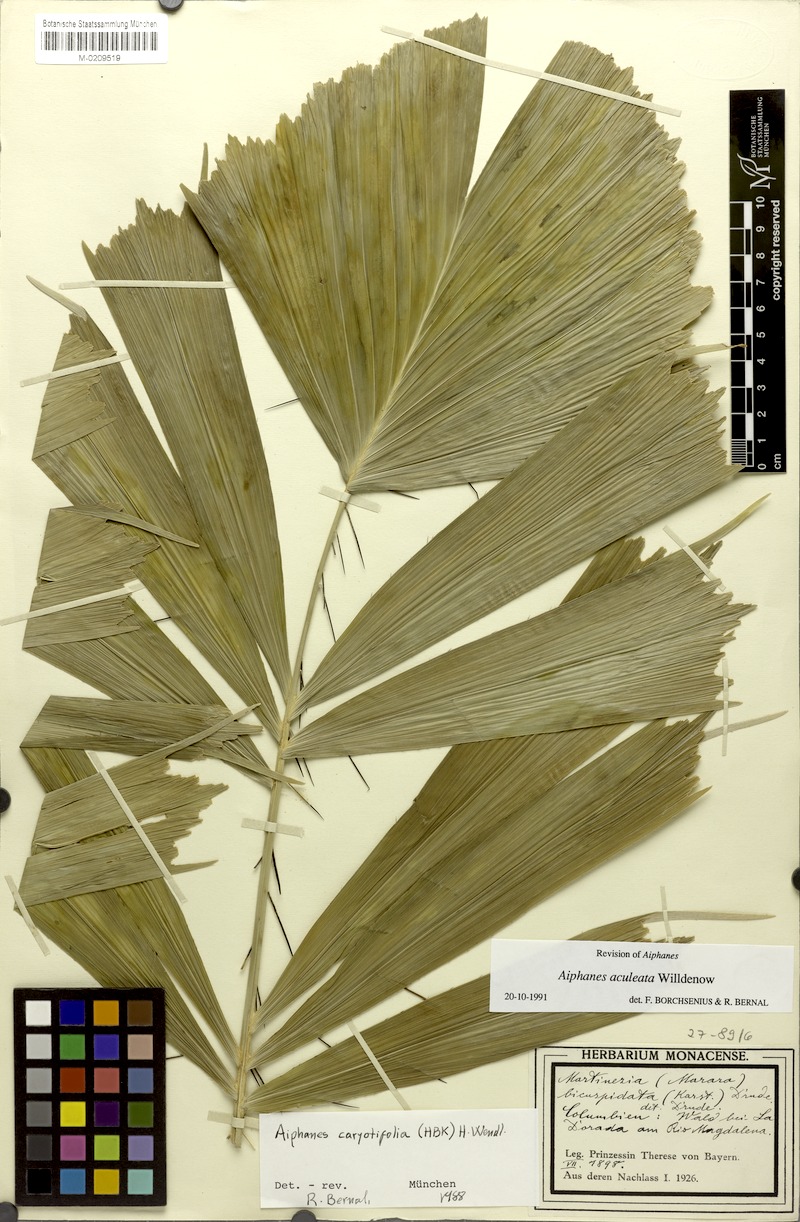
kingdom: Plantae
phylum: Tracheophyta
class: Liliopsida
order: Arecales
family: Arecaceae
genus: Aiphanes
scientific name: Aiphanes horrida
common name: Ruffle palm
